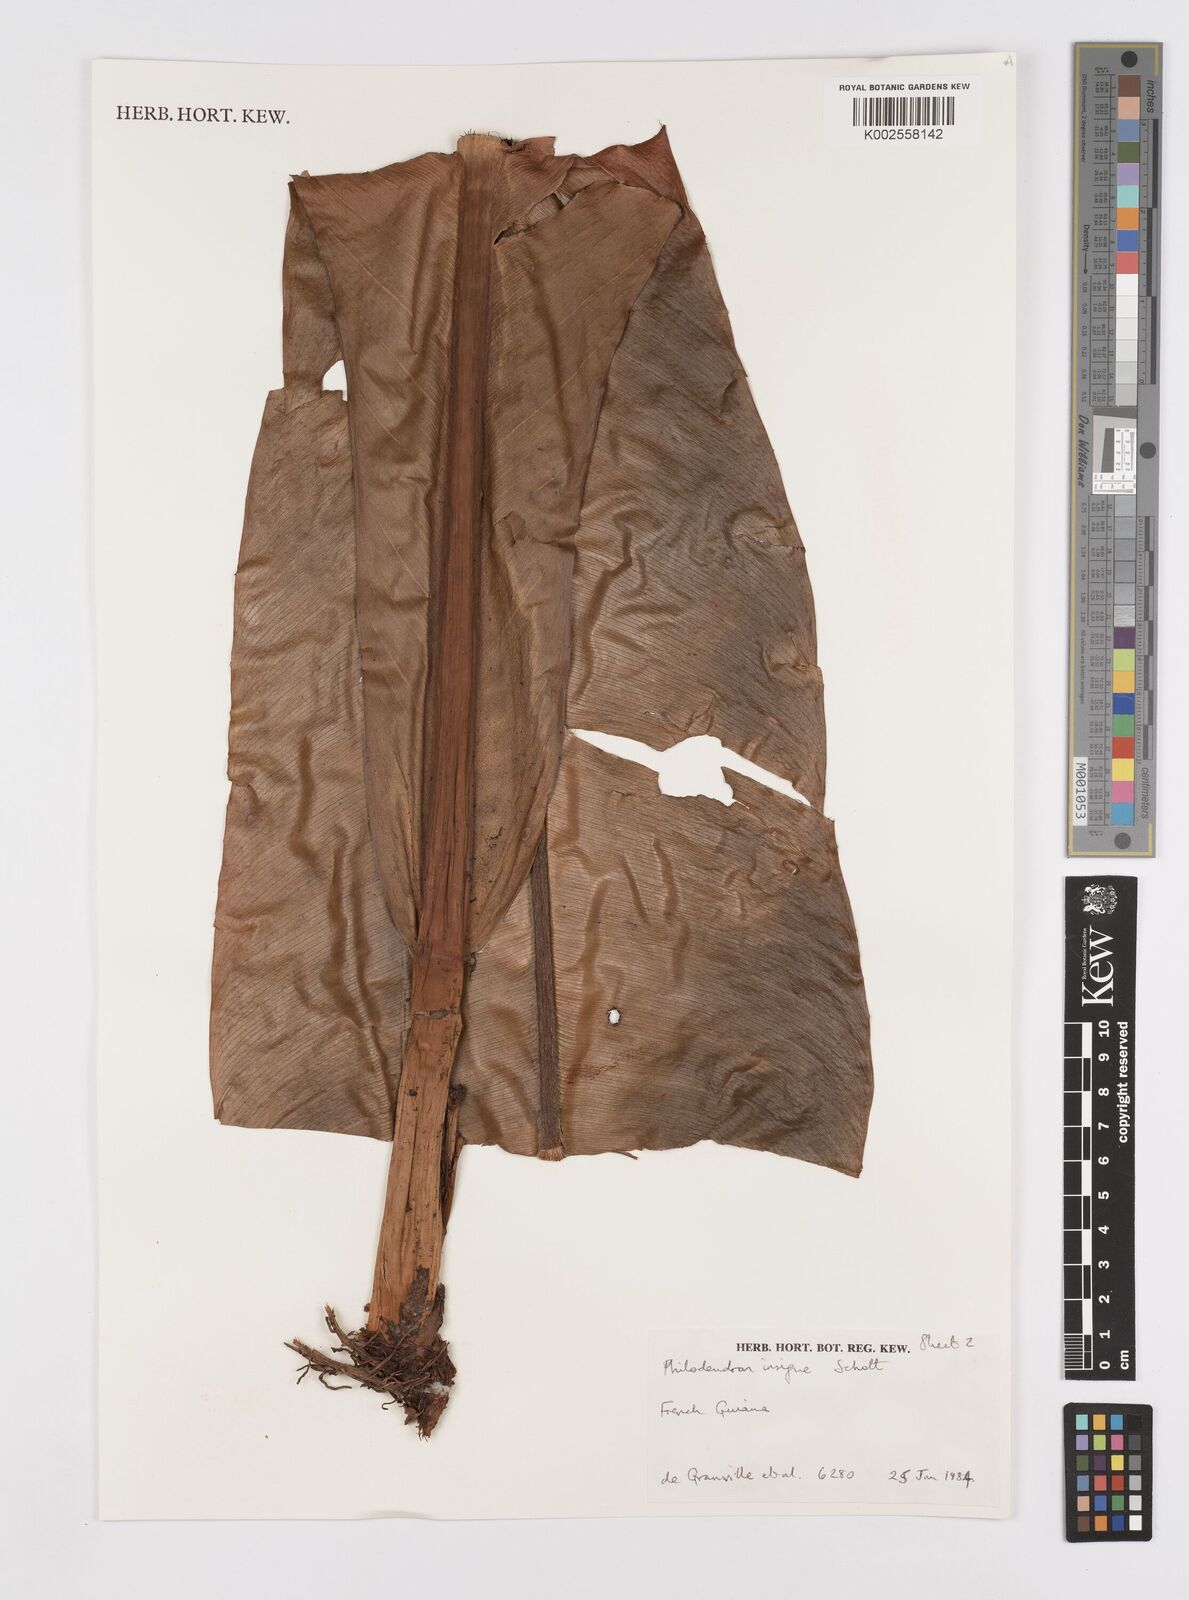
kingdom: Plantae
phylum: Tracheophyta
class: Liliopsida
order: Alismatales
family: Araceae
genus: Philodendron
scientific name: Philodendron insigne
